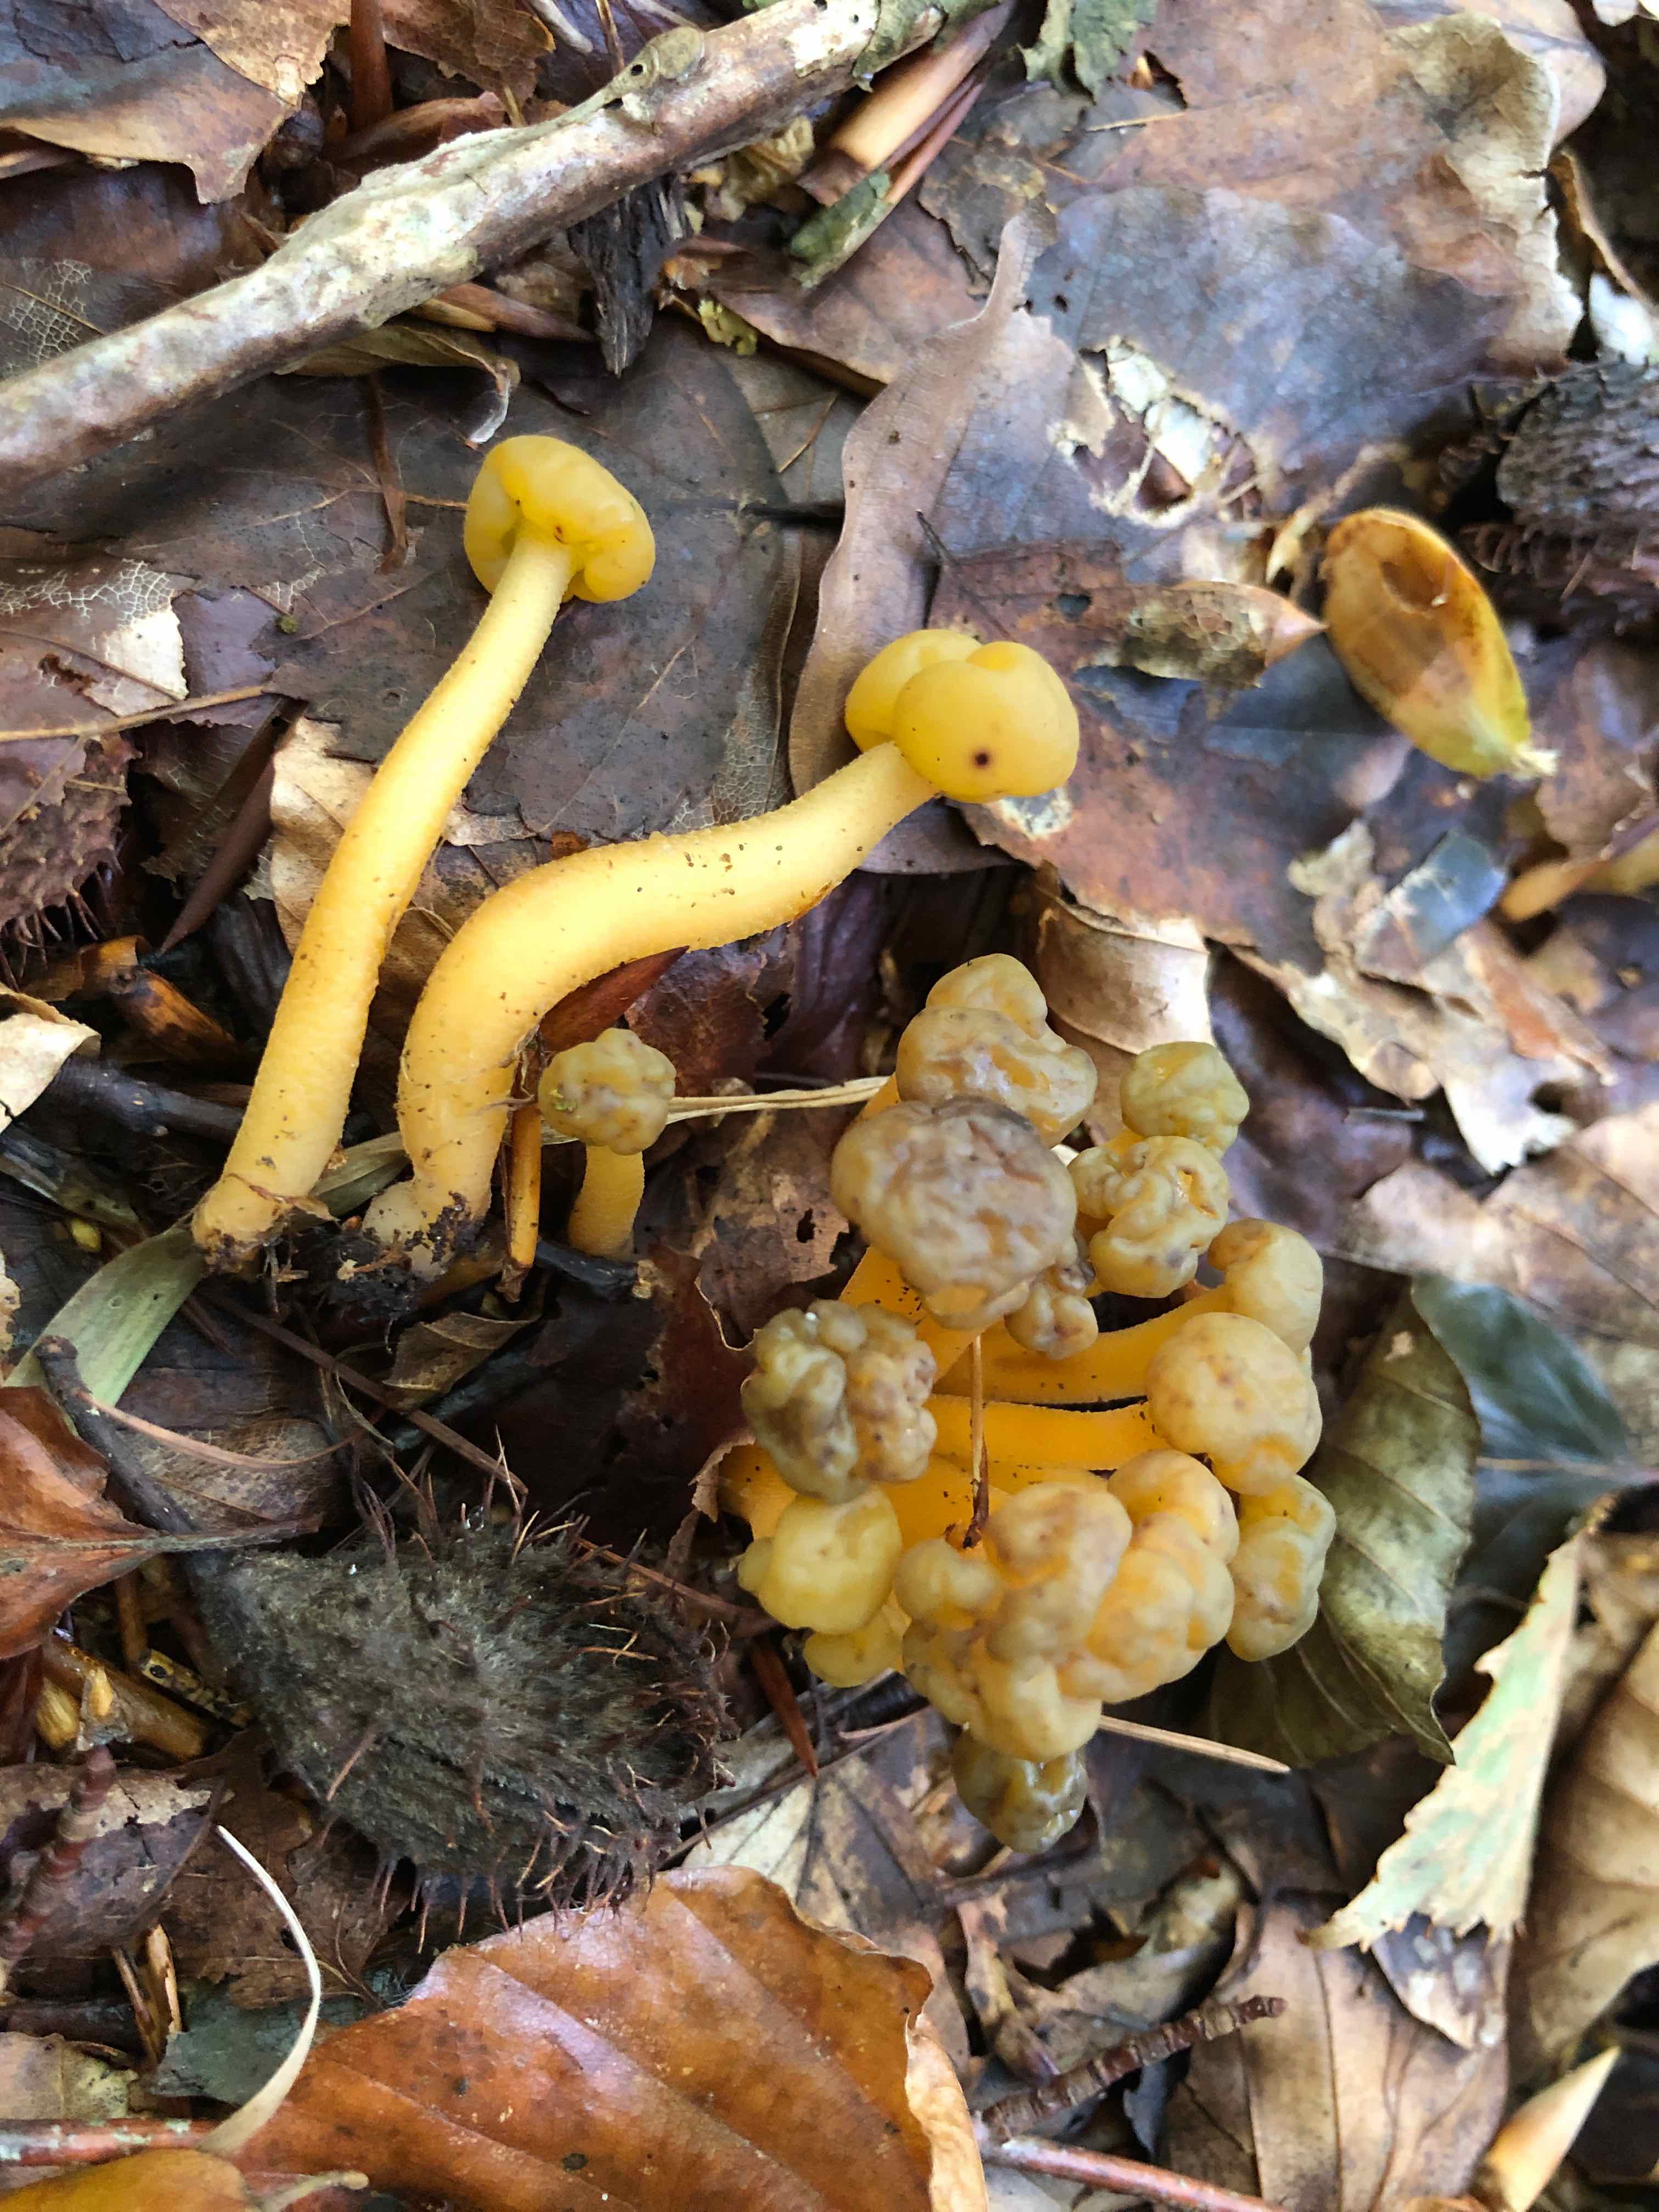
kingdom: Fungi
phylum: Ascomycota
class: Leotiomycetes
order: Leotiales
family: Leotiaceae
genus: Leotia
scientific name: Leotia lubrica
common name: ravsvamp
